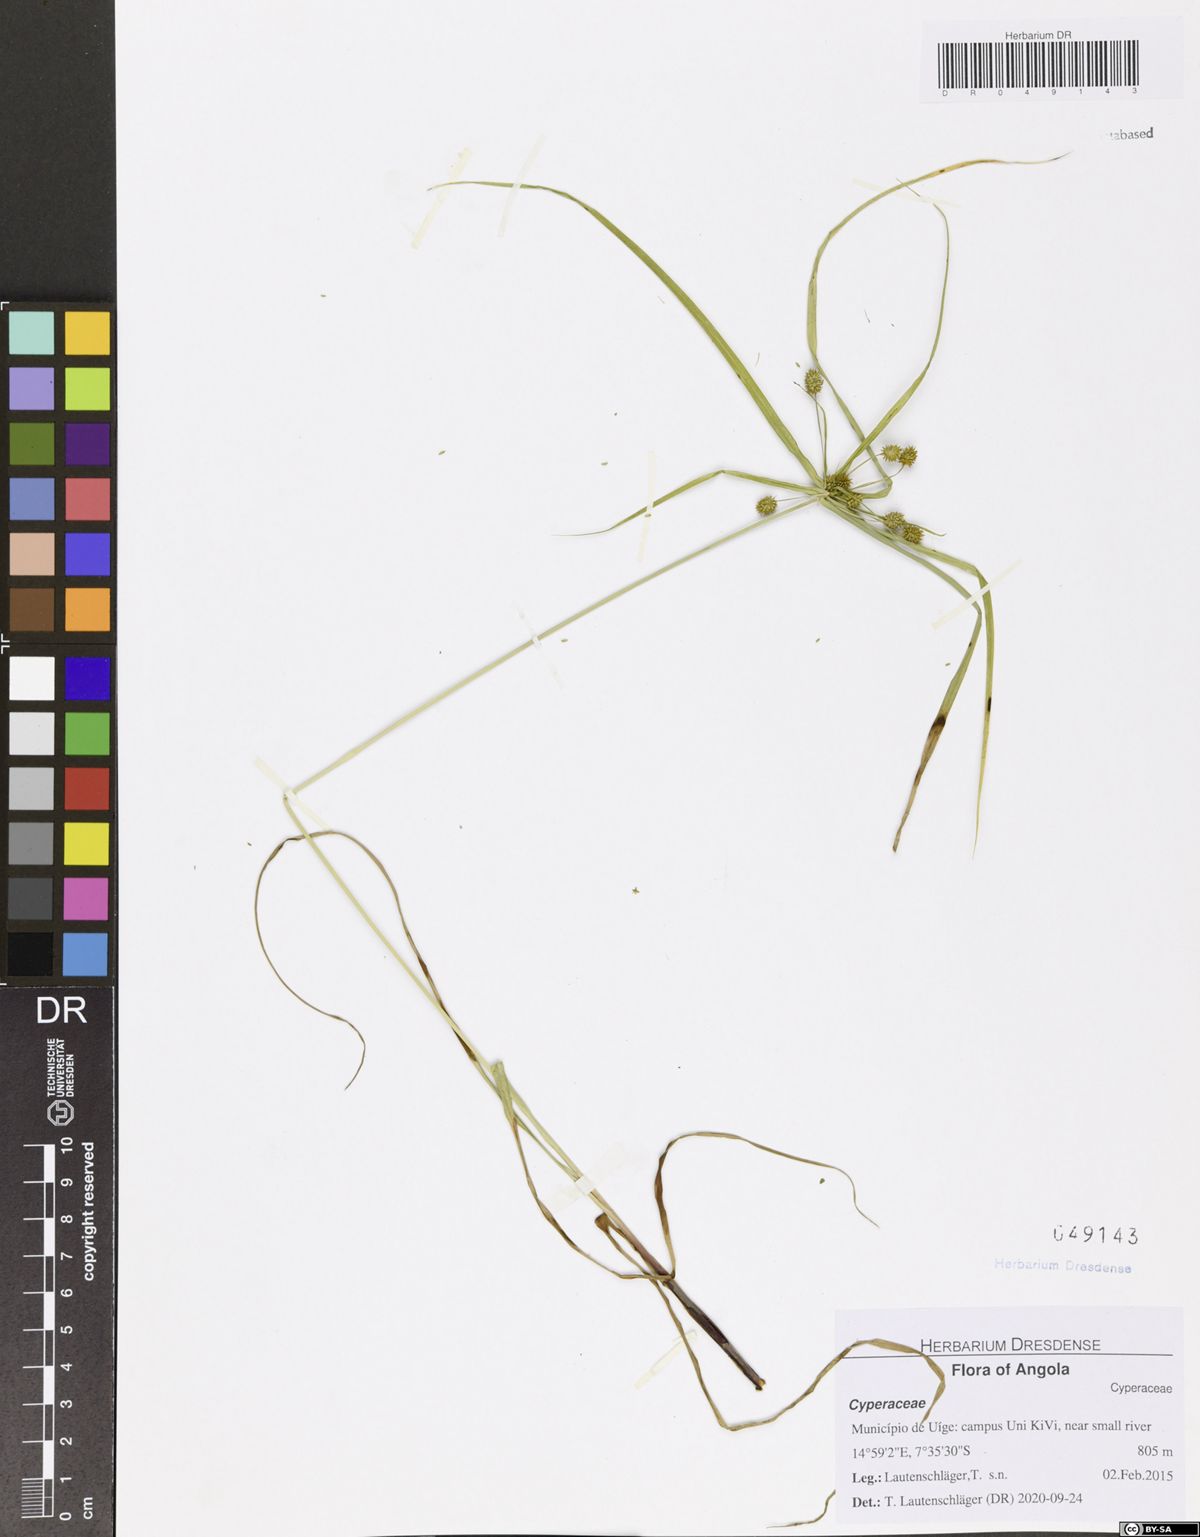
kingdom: Plantae
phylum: Tracheophyta
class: Liliopsida
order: Poales
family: Cyperaceae
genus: Cyperus
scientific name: Cyperus cyperoides
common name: Pacific island flat sedge
